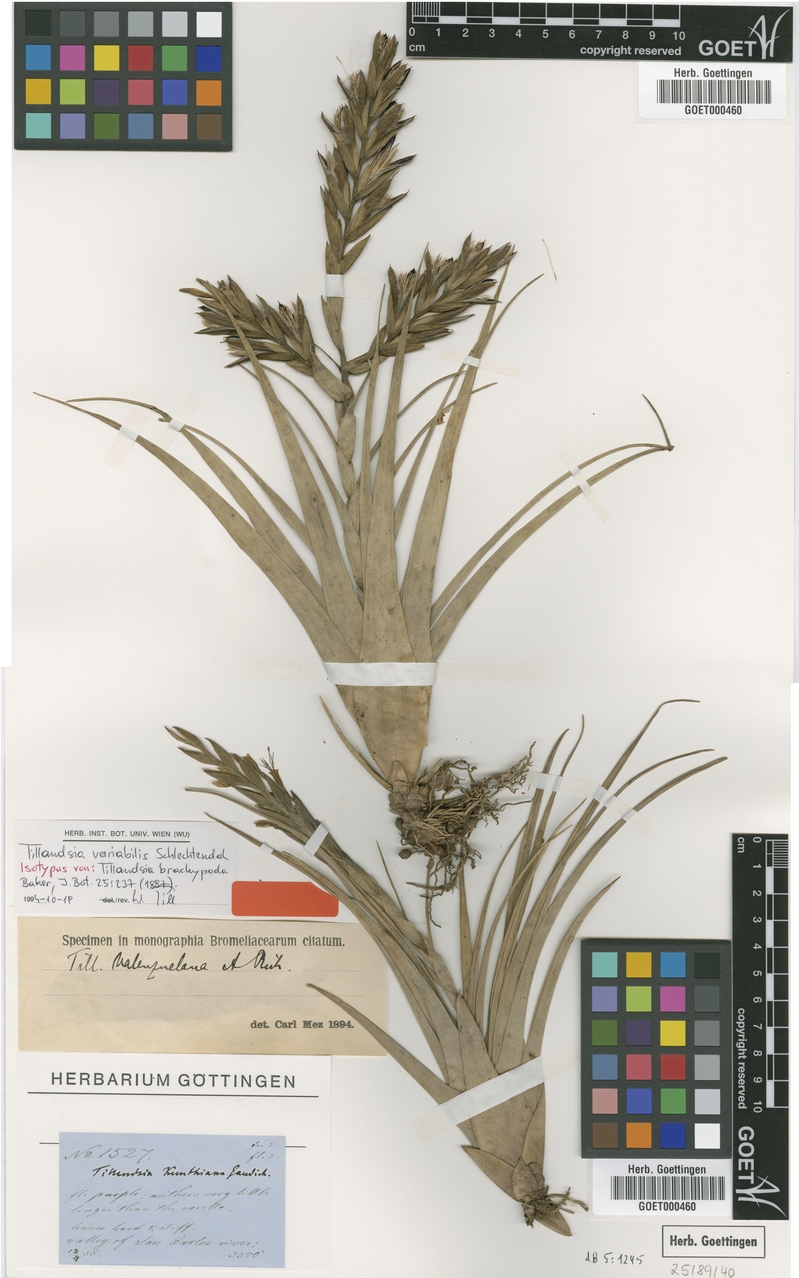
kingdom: Plantae
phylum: Tracheophyta
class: Liliopsida
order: Poales
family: Bromeliaceae
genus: Tillandsia
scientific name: Tillandsia variabilis
